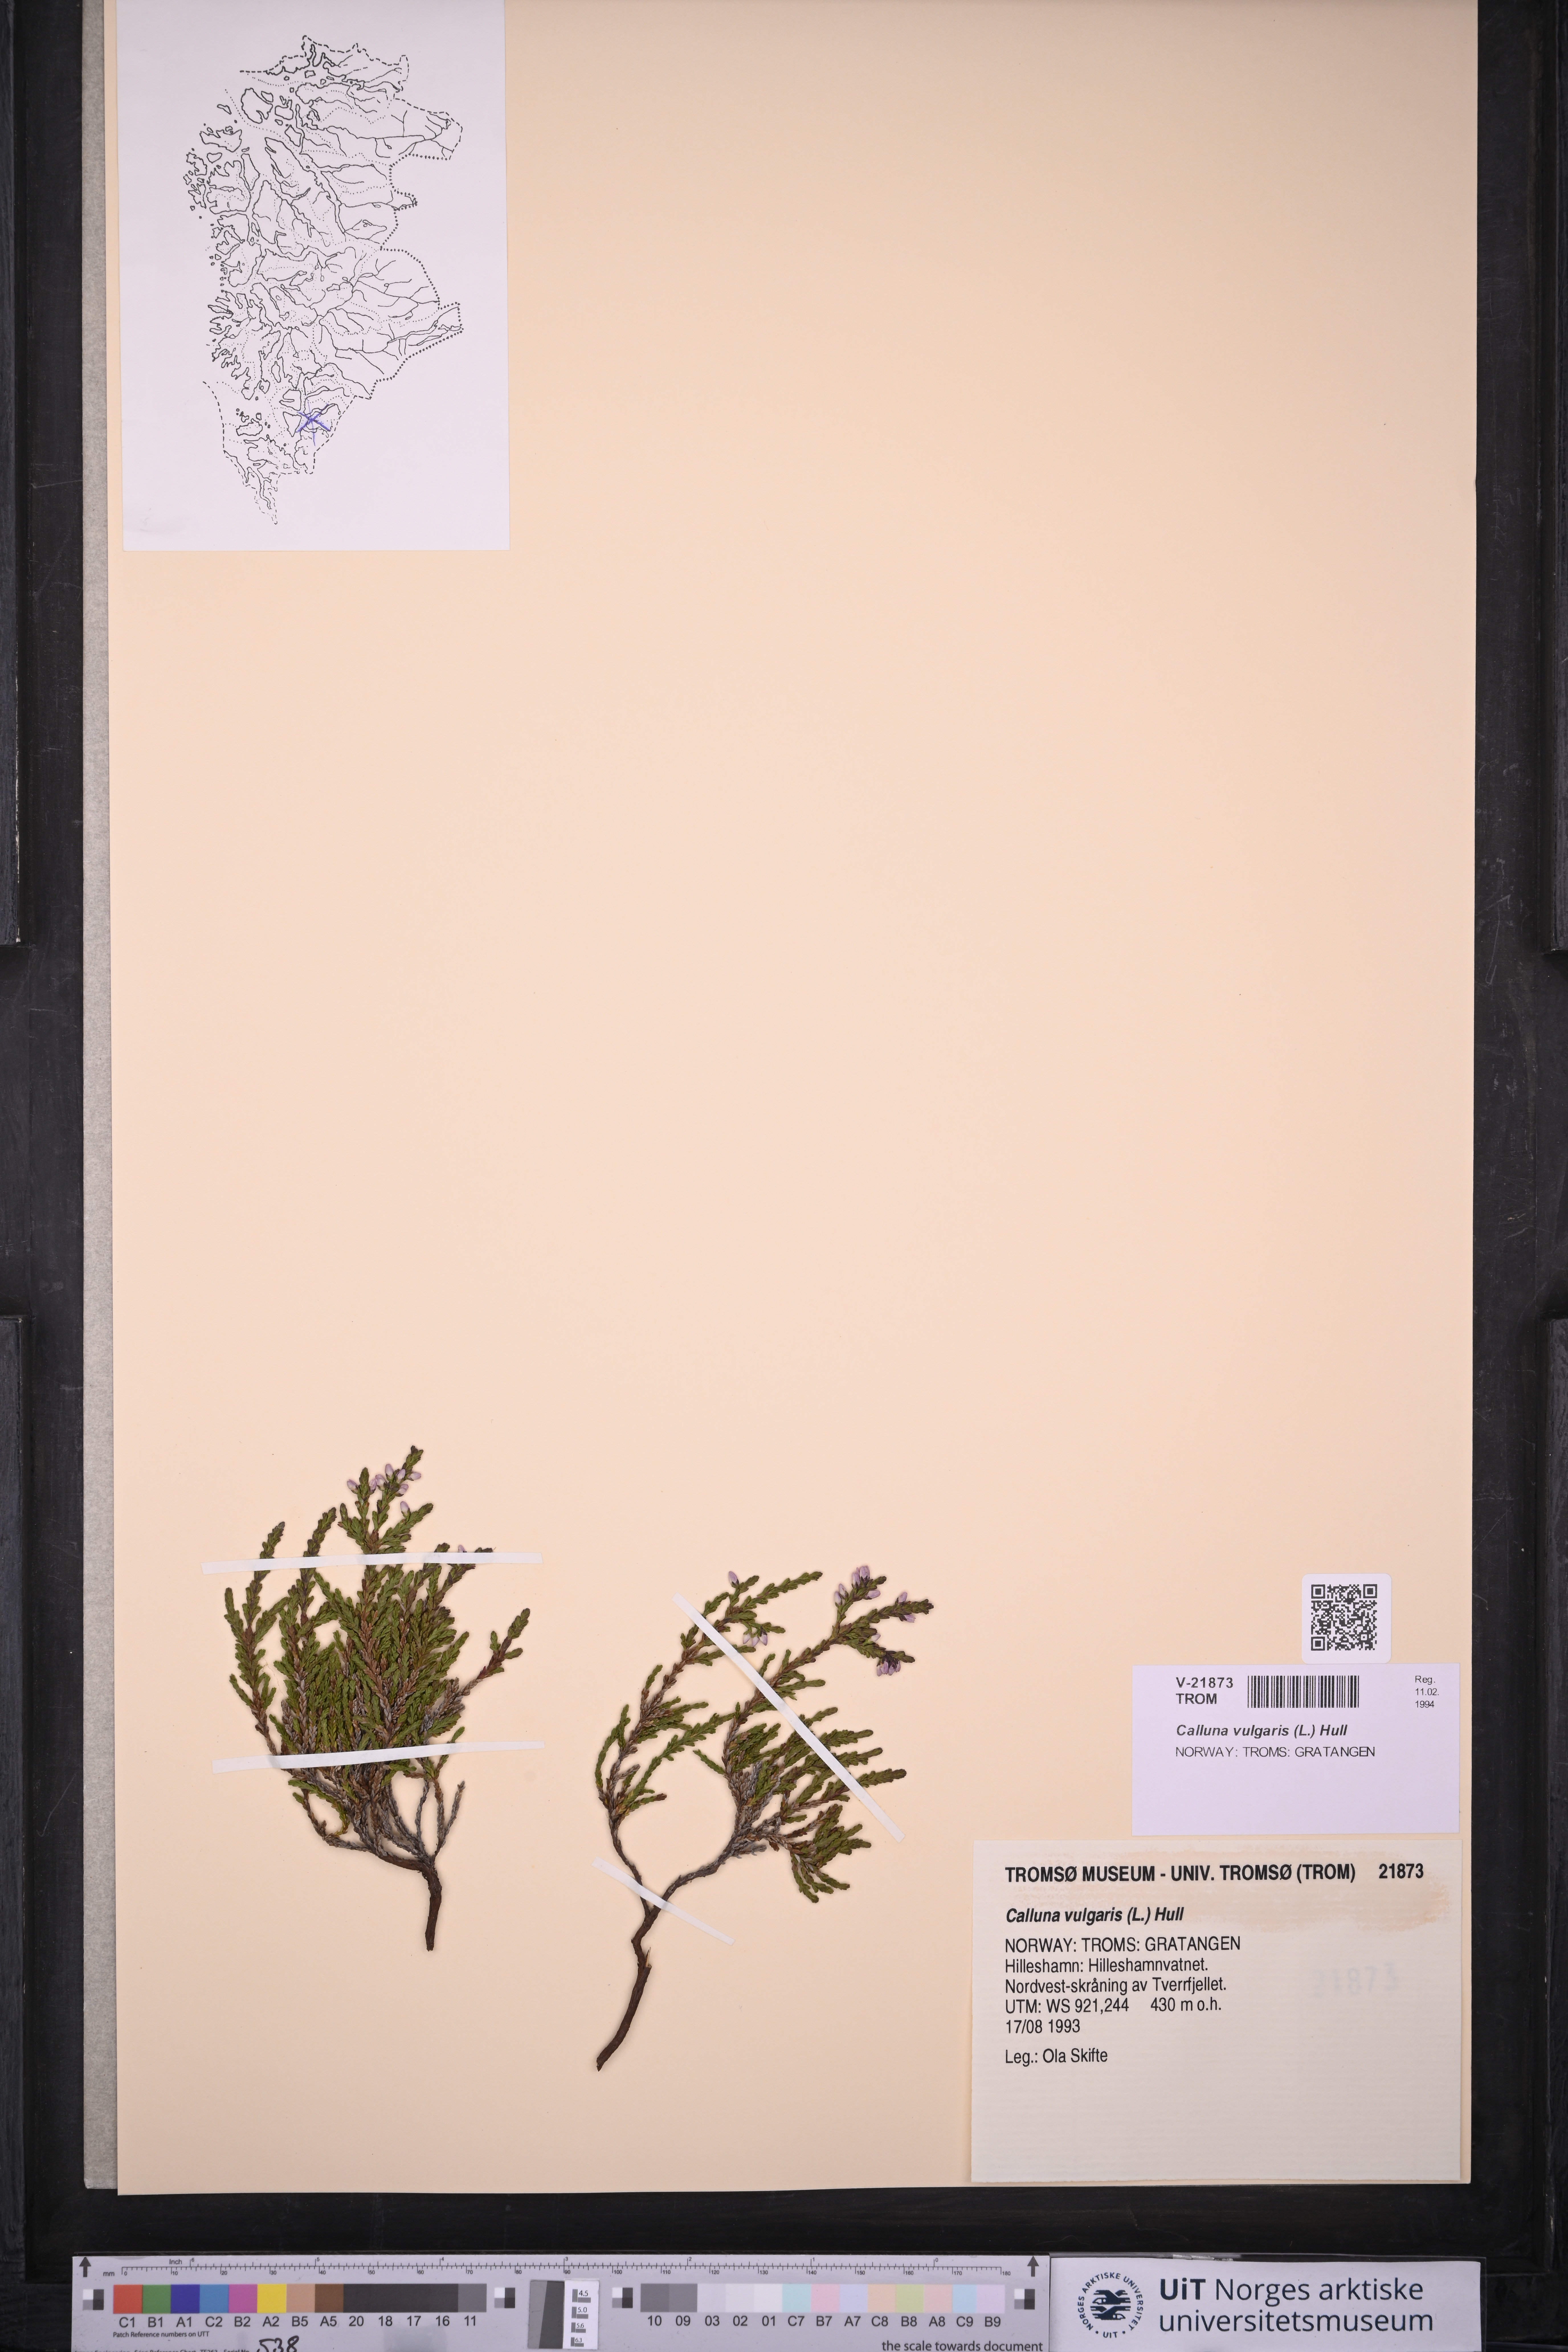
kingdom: Plantae
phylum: Tracheophyta
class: Magnoliopsida
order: Ericales
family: Ericaceae
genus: Calluna
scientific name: Calluna vulgaris
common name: Heather
